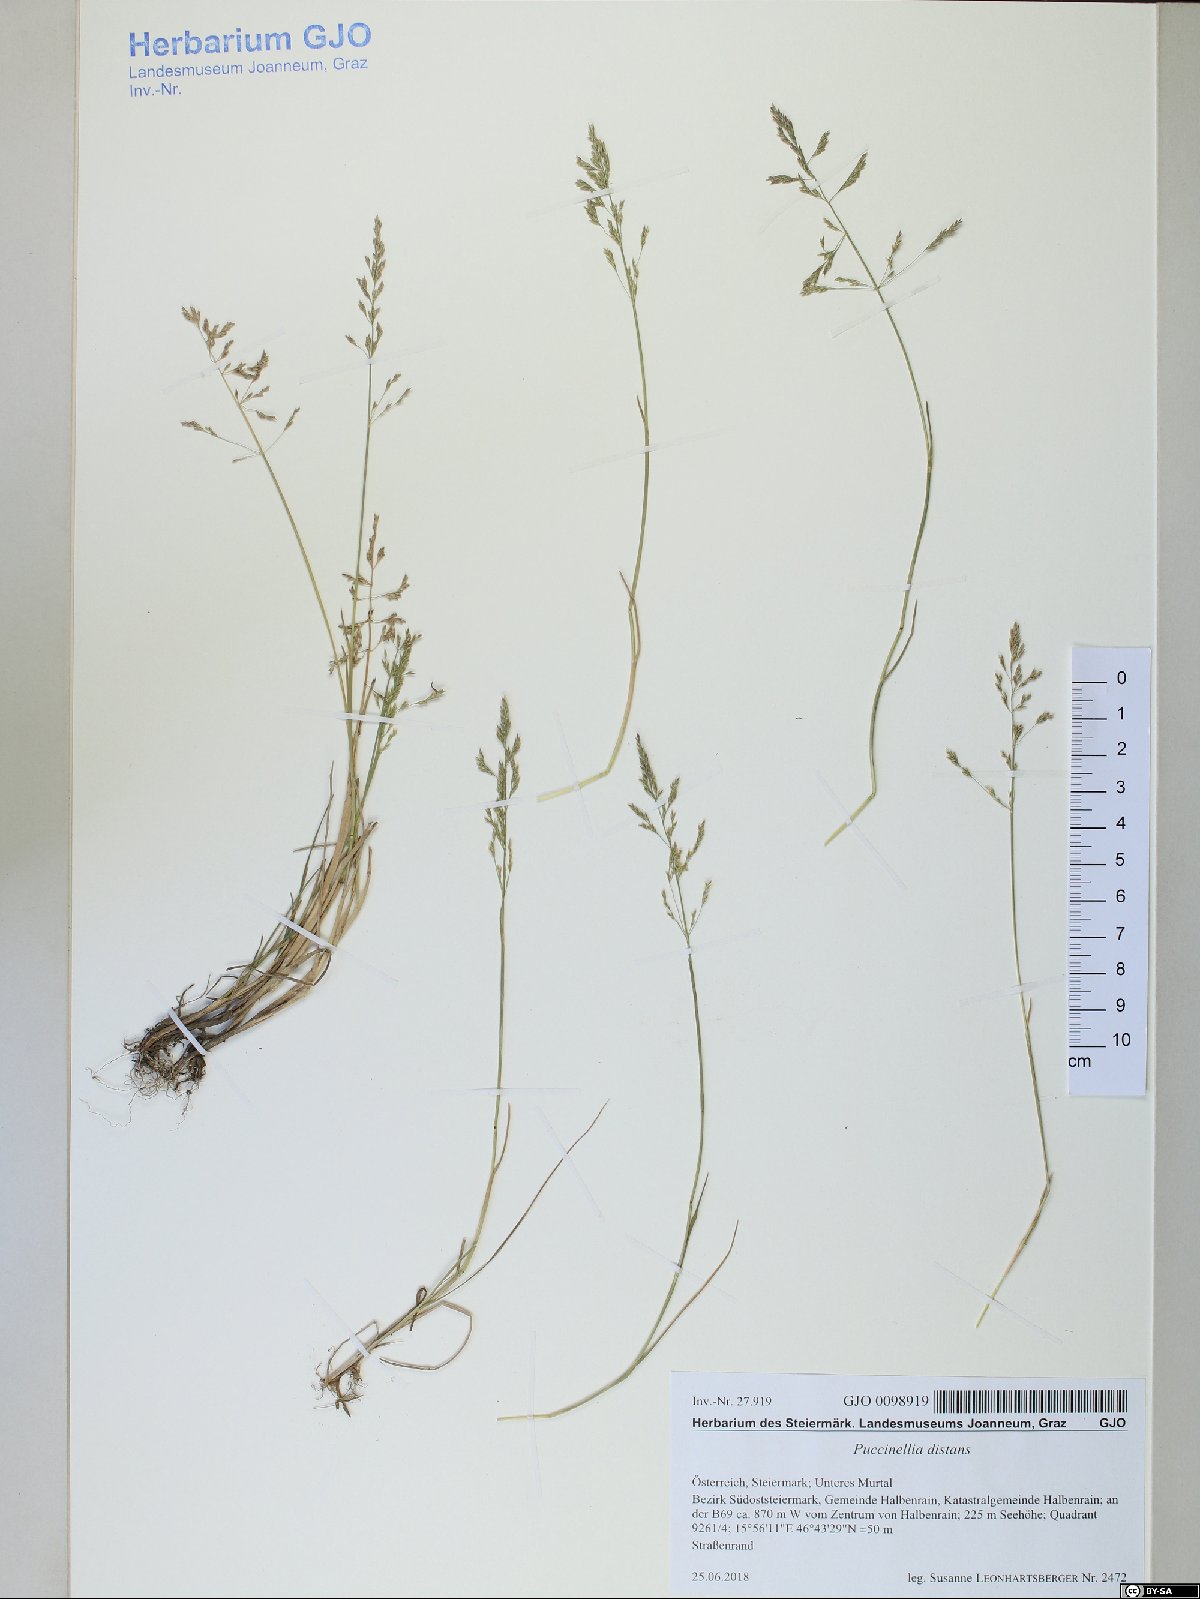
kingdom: Plantae
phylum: Tracheophyta
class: Liliopsida
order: Poales
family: Poaceae
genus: Puccinellia
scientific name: Puccinellia distans
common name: Weeping alkaligrass
